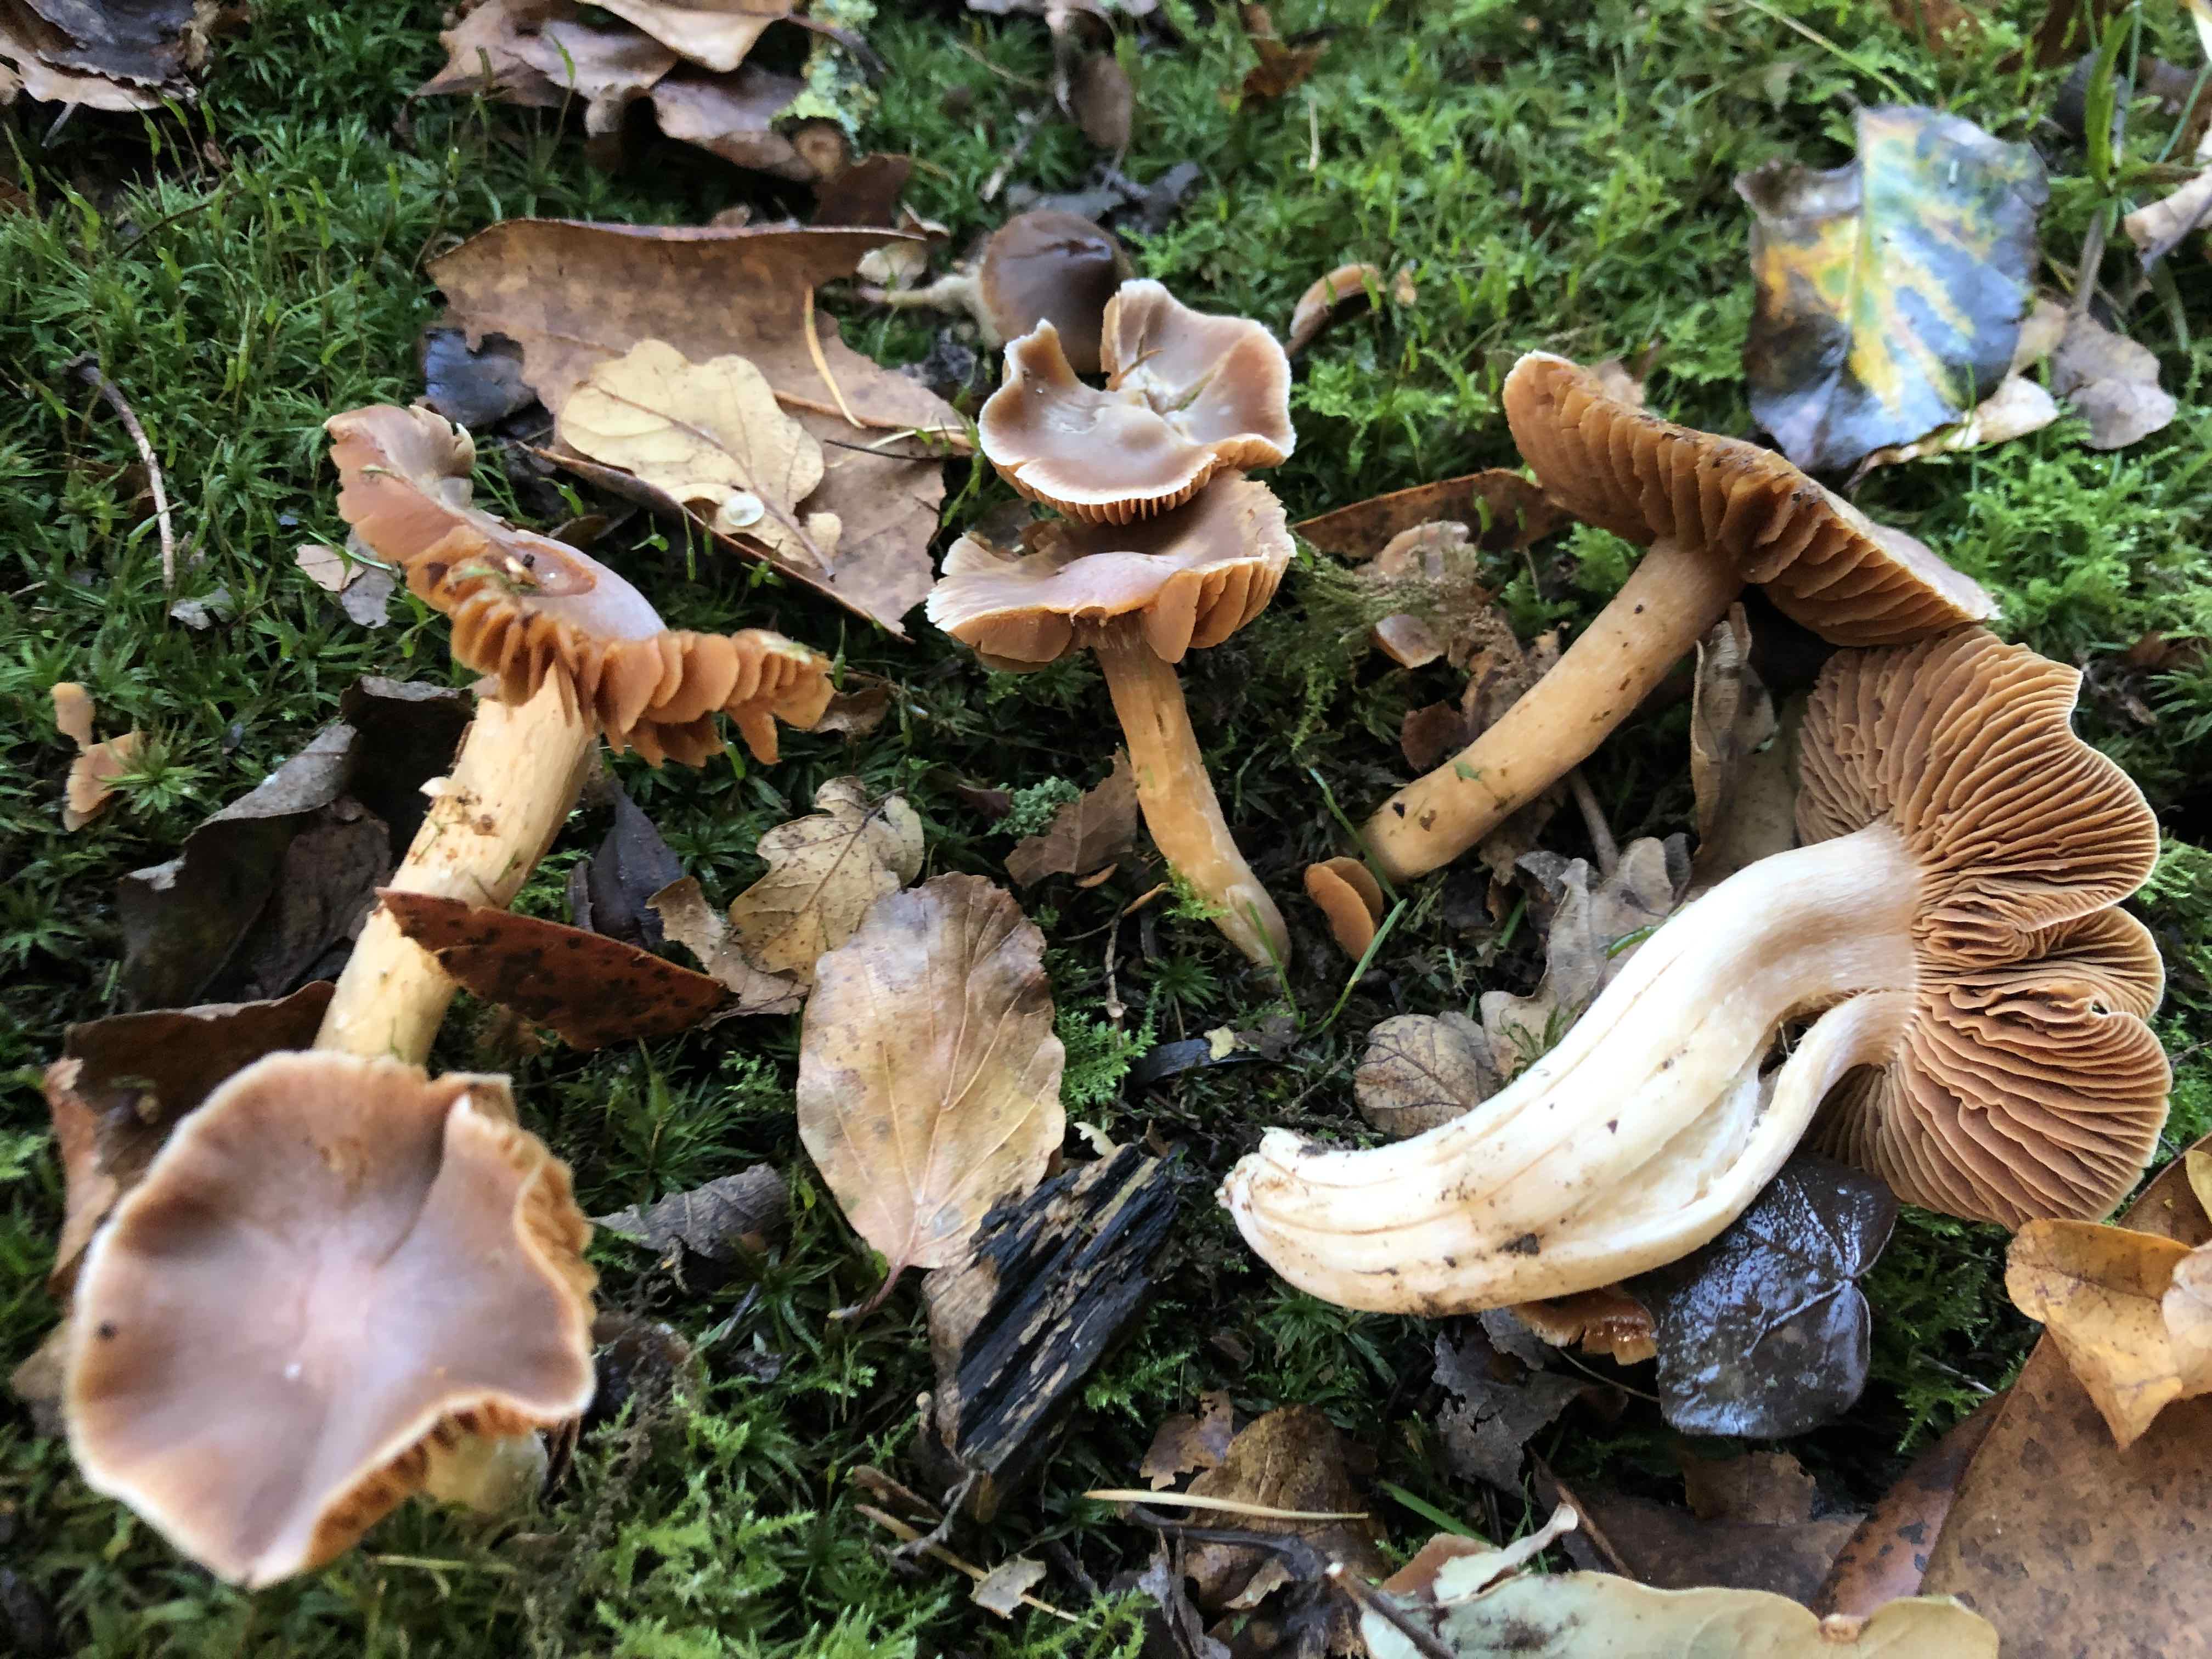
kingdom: Fungi
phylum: Basidiomycota
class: Agaricomycetes
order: Agaricales
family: Cortinariaceae
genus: Cortinarius
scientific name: Cortinarius
